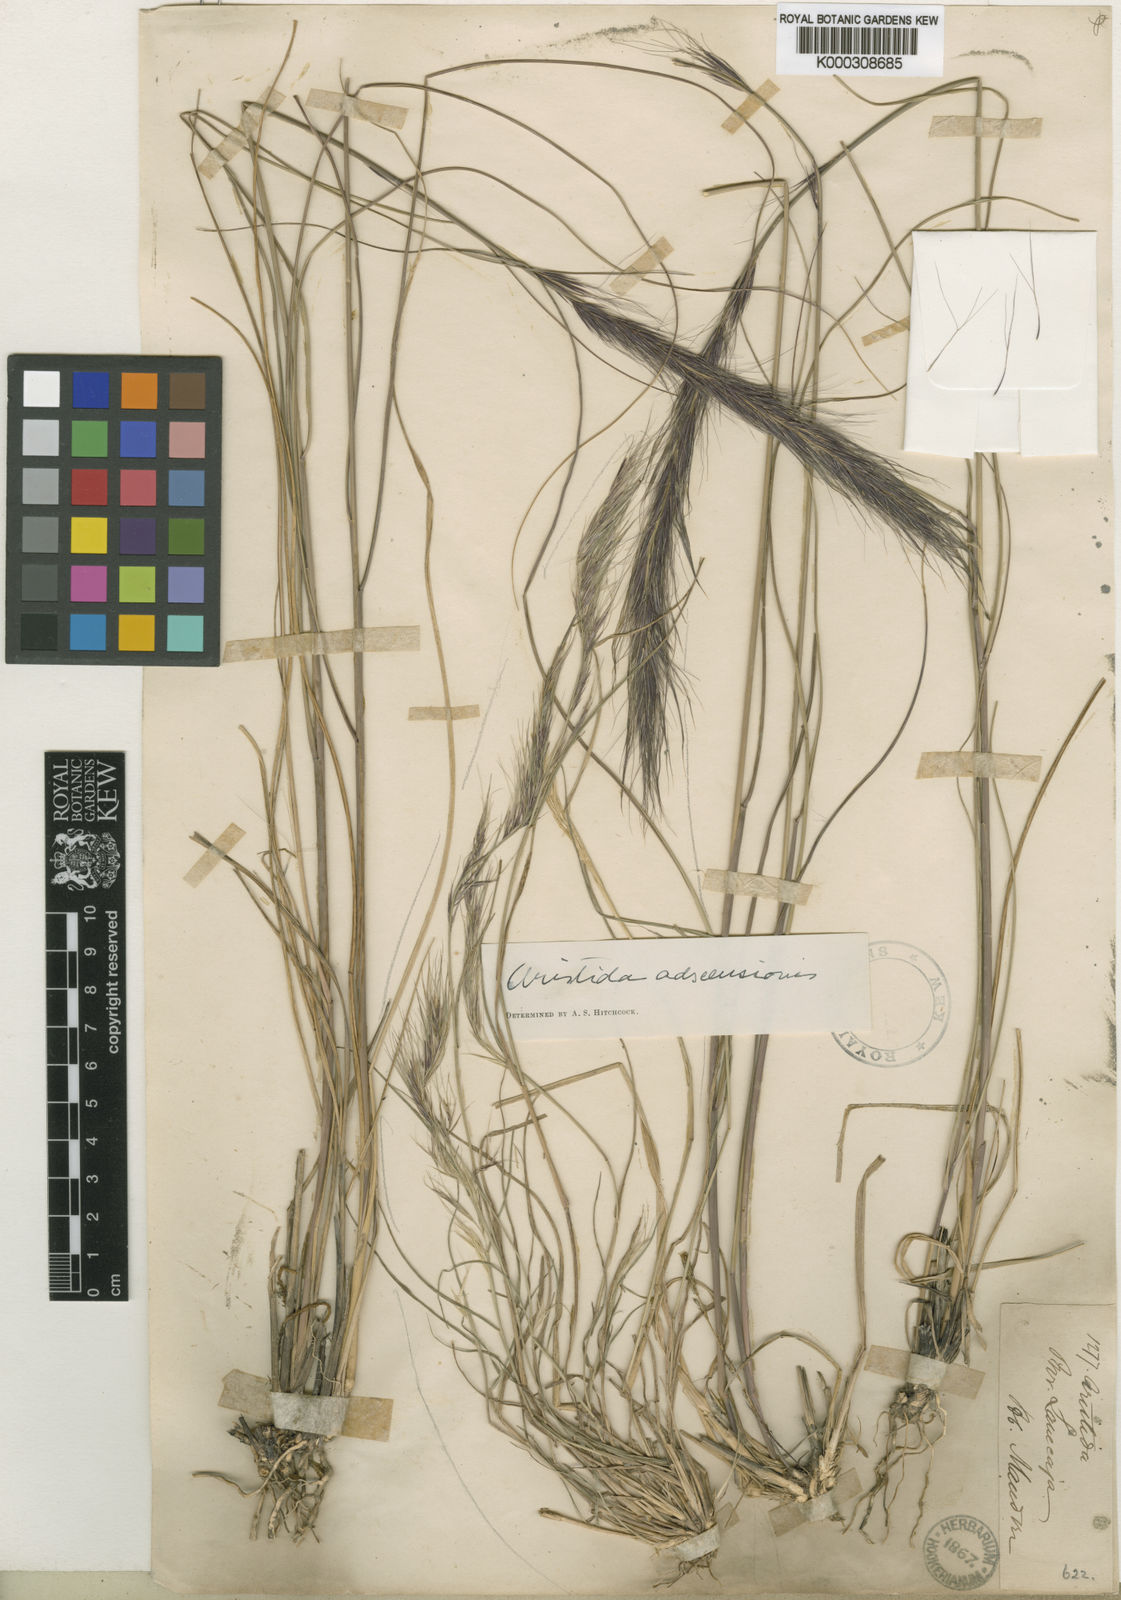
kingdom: Plantae
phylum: Tracheophyta
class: Liliopsida
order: Poales
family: Poaceae
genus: Aristida
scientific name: Aristida mandoniana
